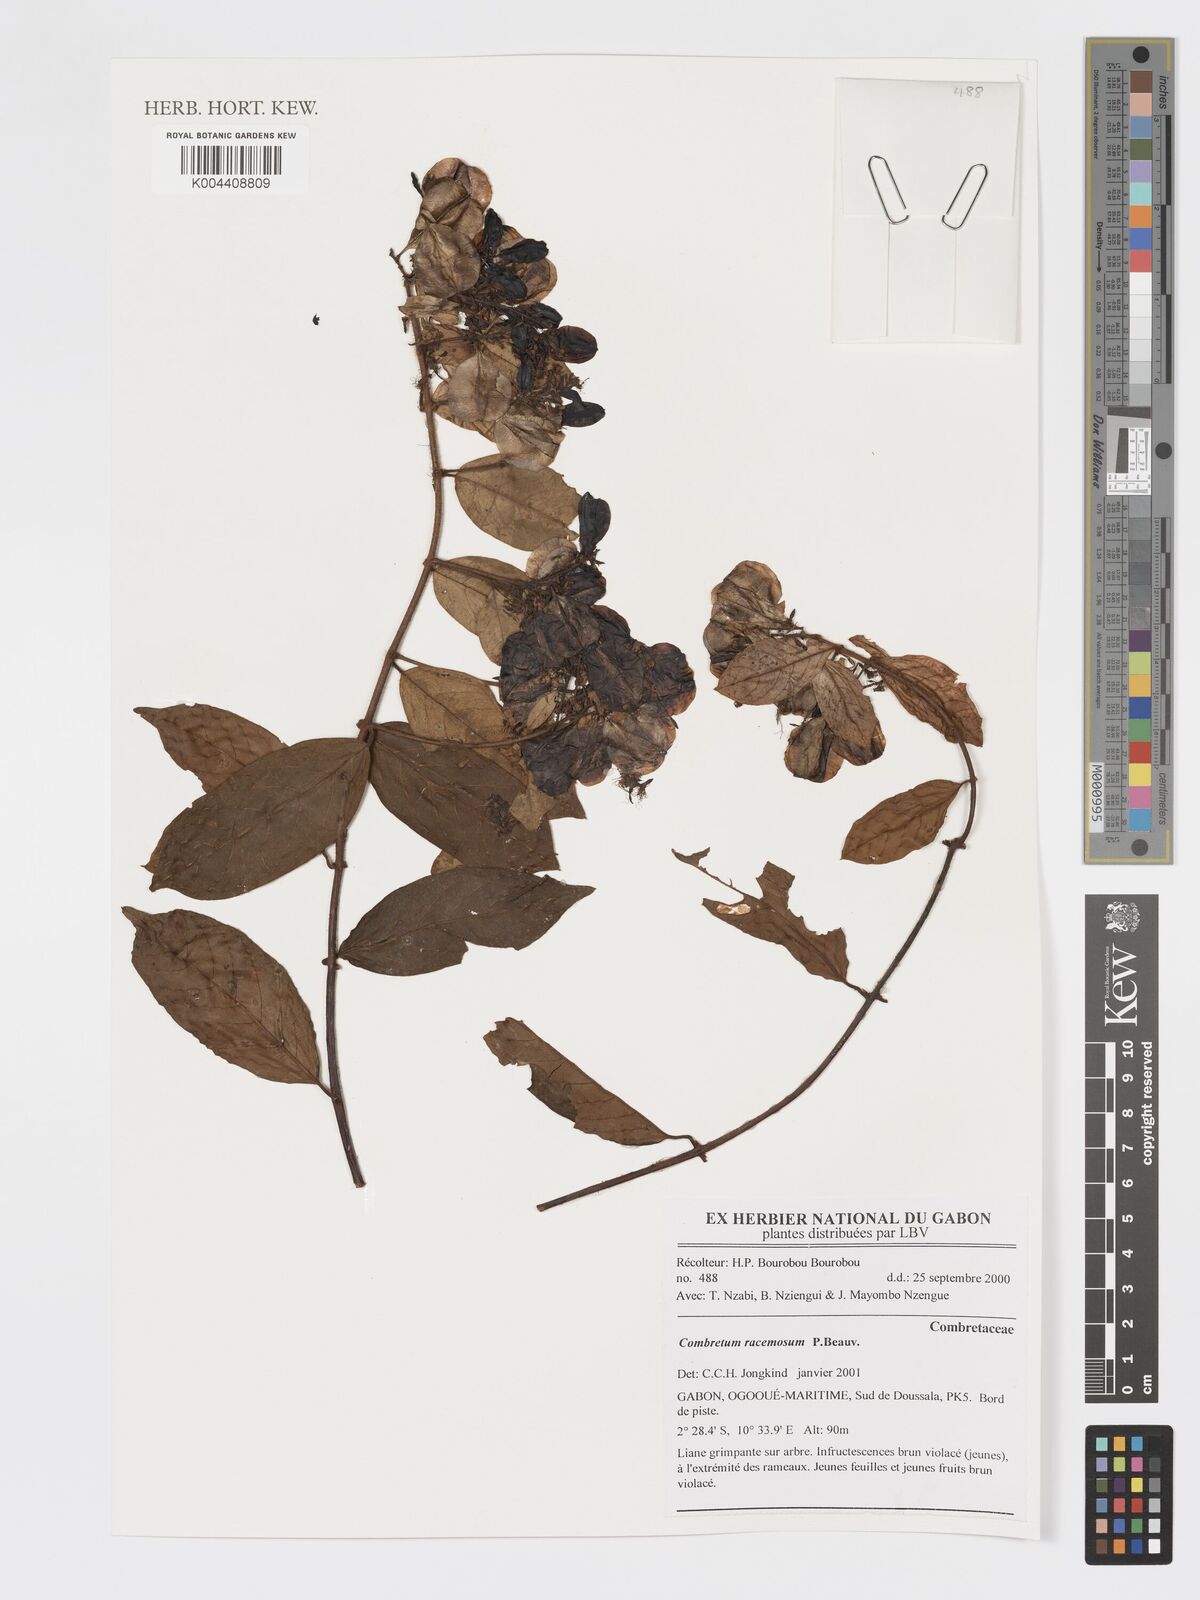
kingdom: Plantae
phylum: Tracheophyta
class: Magnoliopsida
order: Myrtales
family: Combretaceae
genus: Combretum
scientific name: Combretum racemosum
